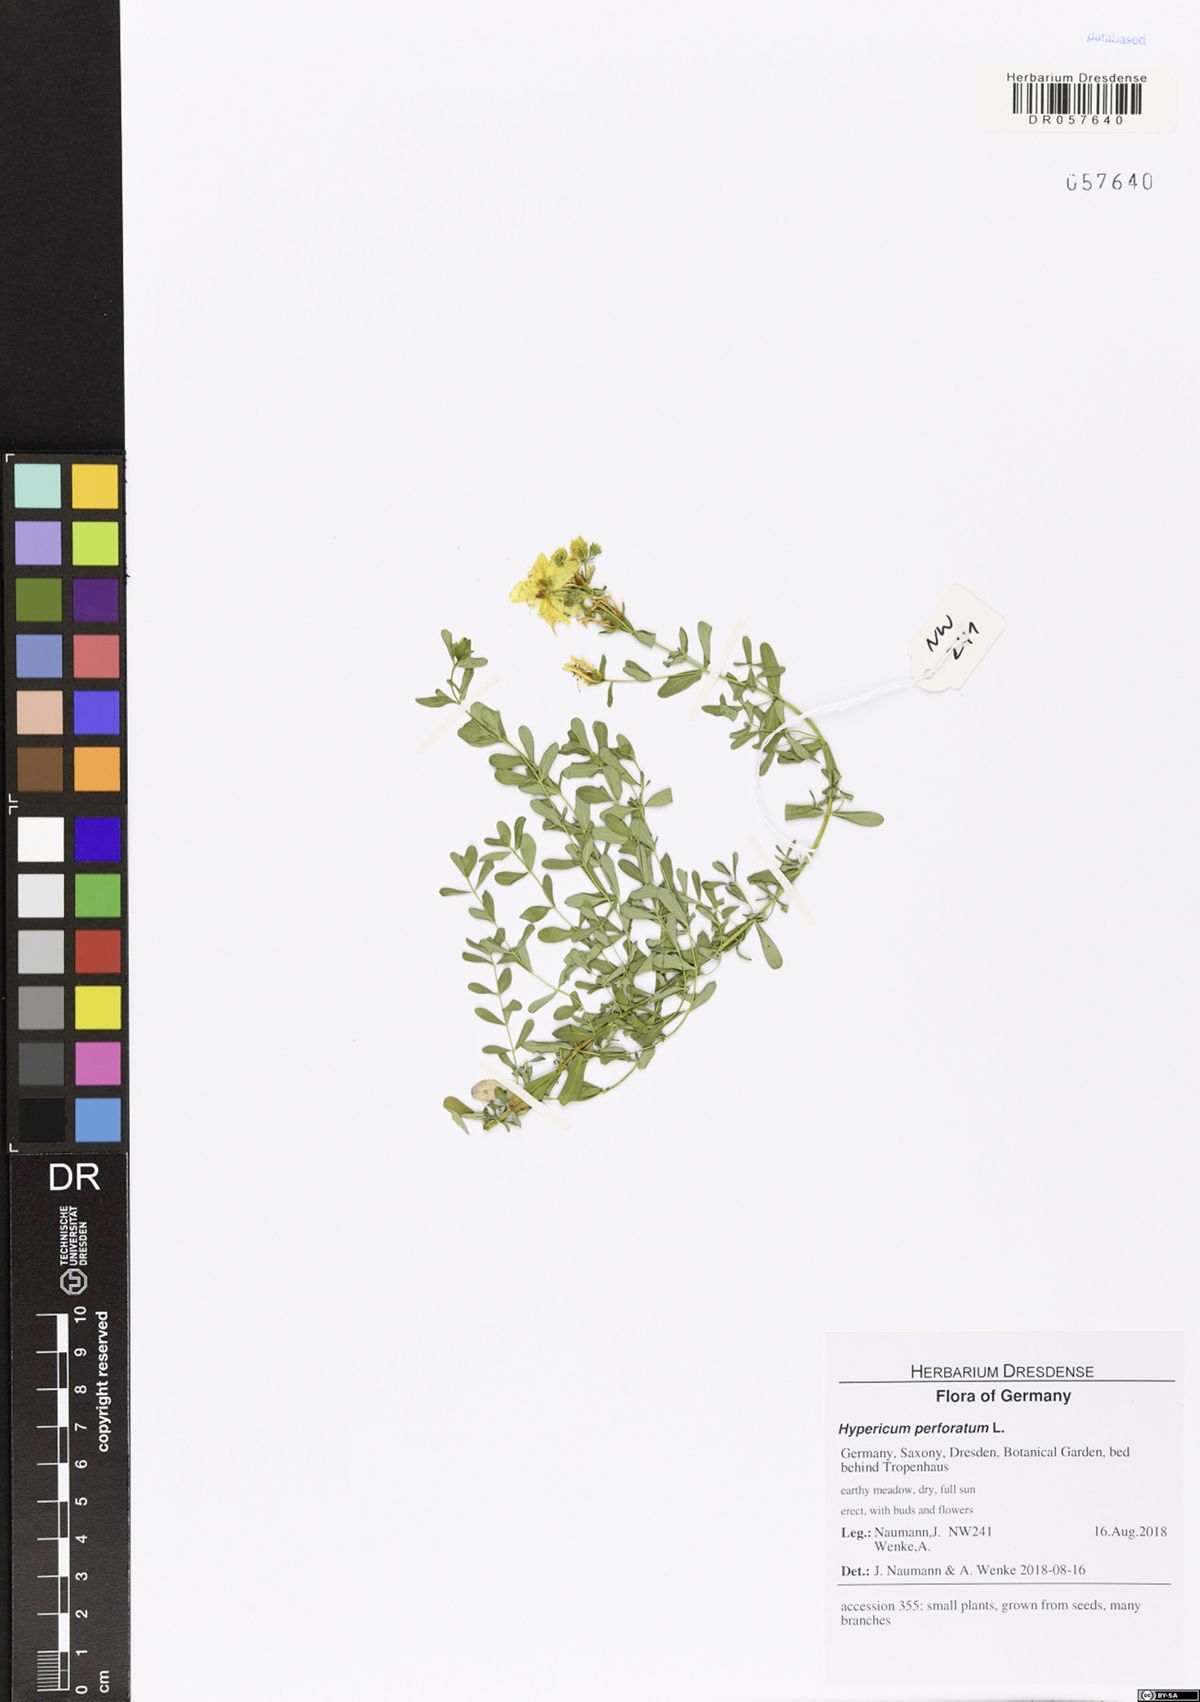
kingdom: Plantae
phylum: Tracheophyta
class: Magnoliopsida
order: Malpighiales
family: Hypericaceae
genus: Hypericum
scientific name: Hypericum perforatum
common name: Common st. johnswort
